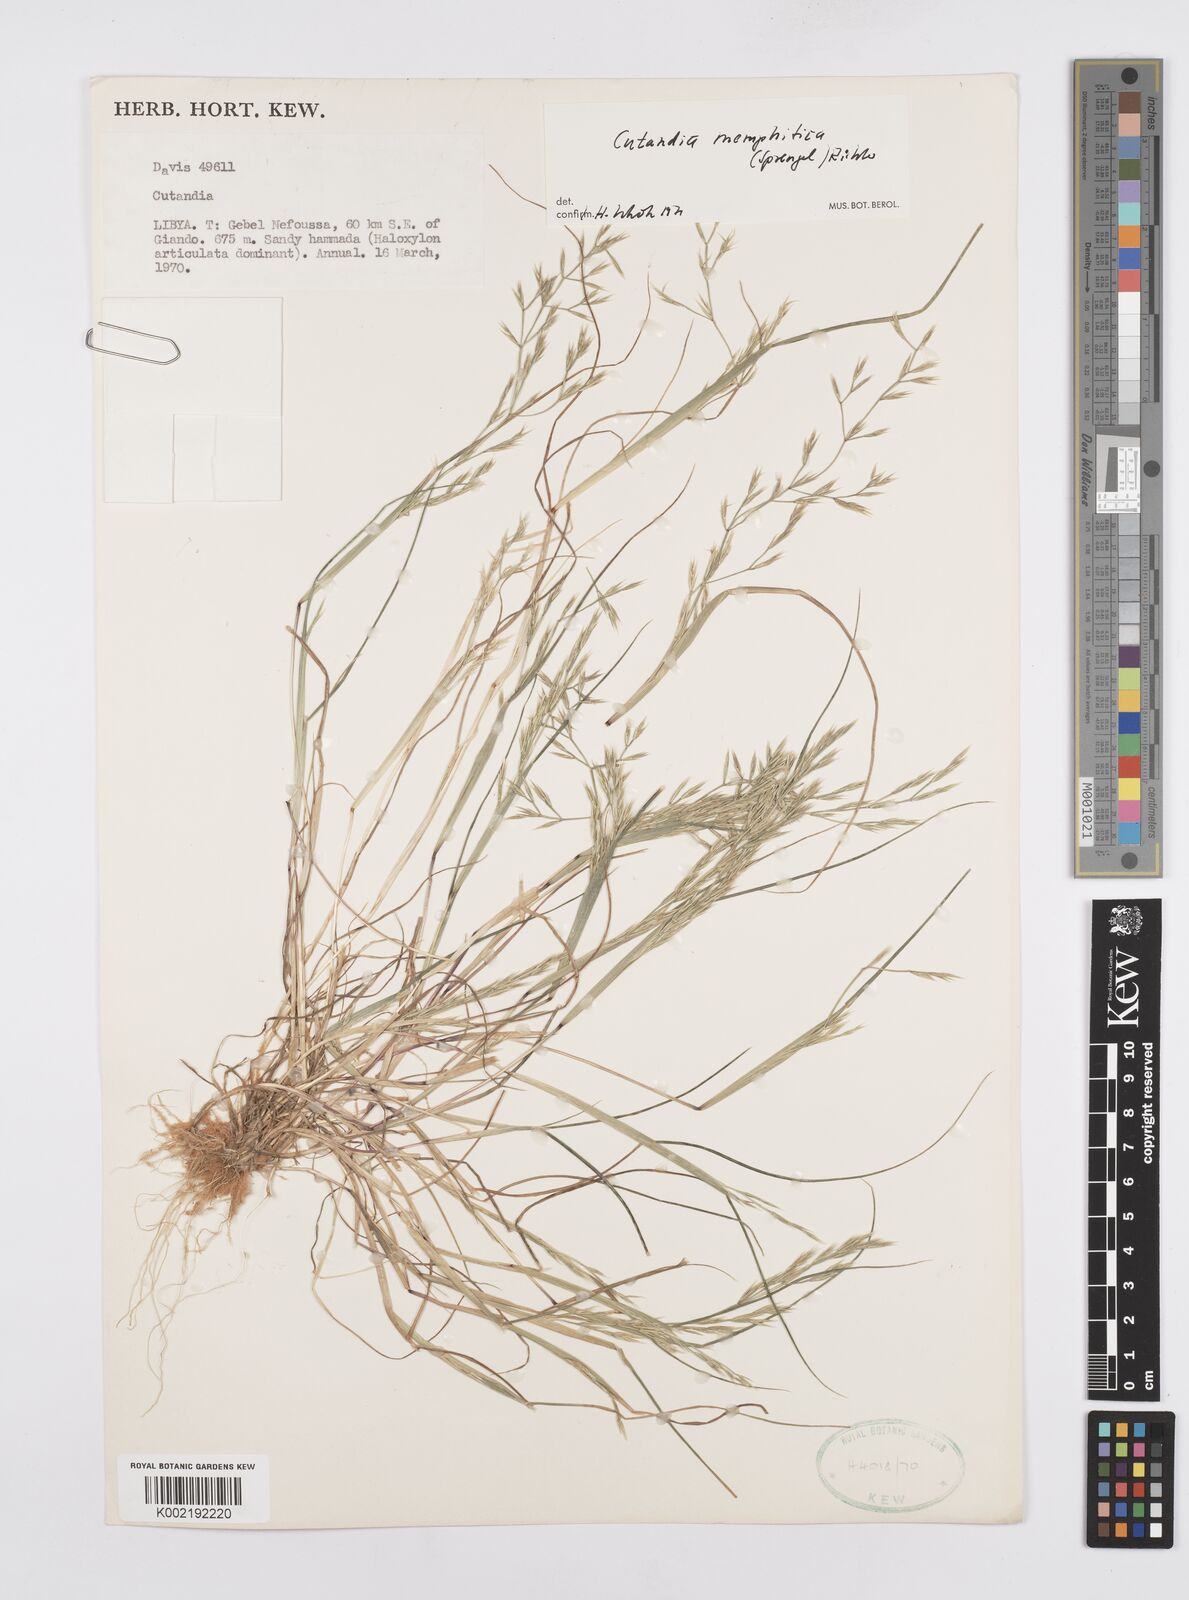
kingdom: Plantae
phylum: Tracheophyta
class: Liliopsida
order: Poales
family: Poaceae
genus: Cutandia
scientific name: Cutandia memphitica
